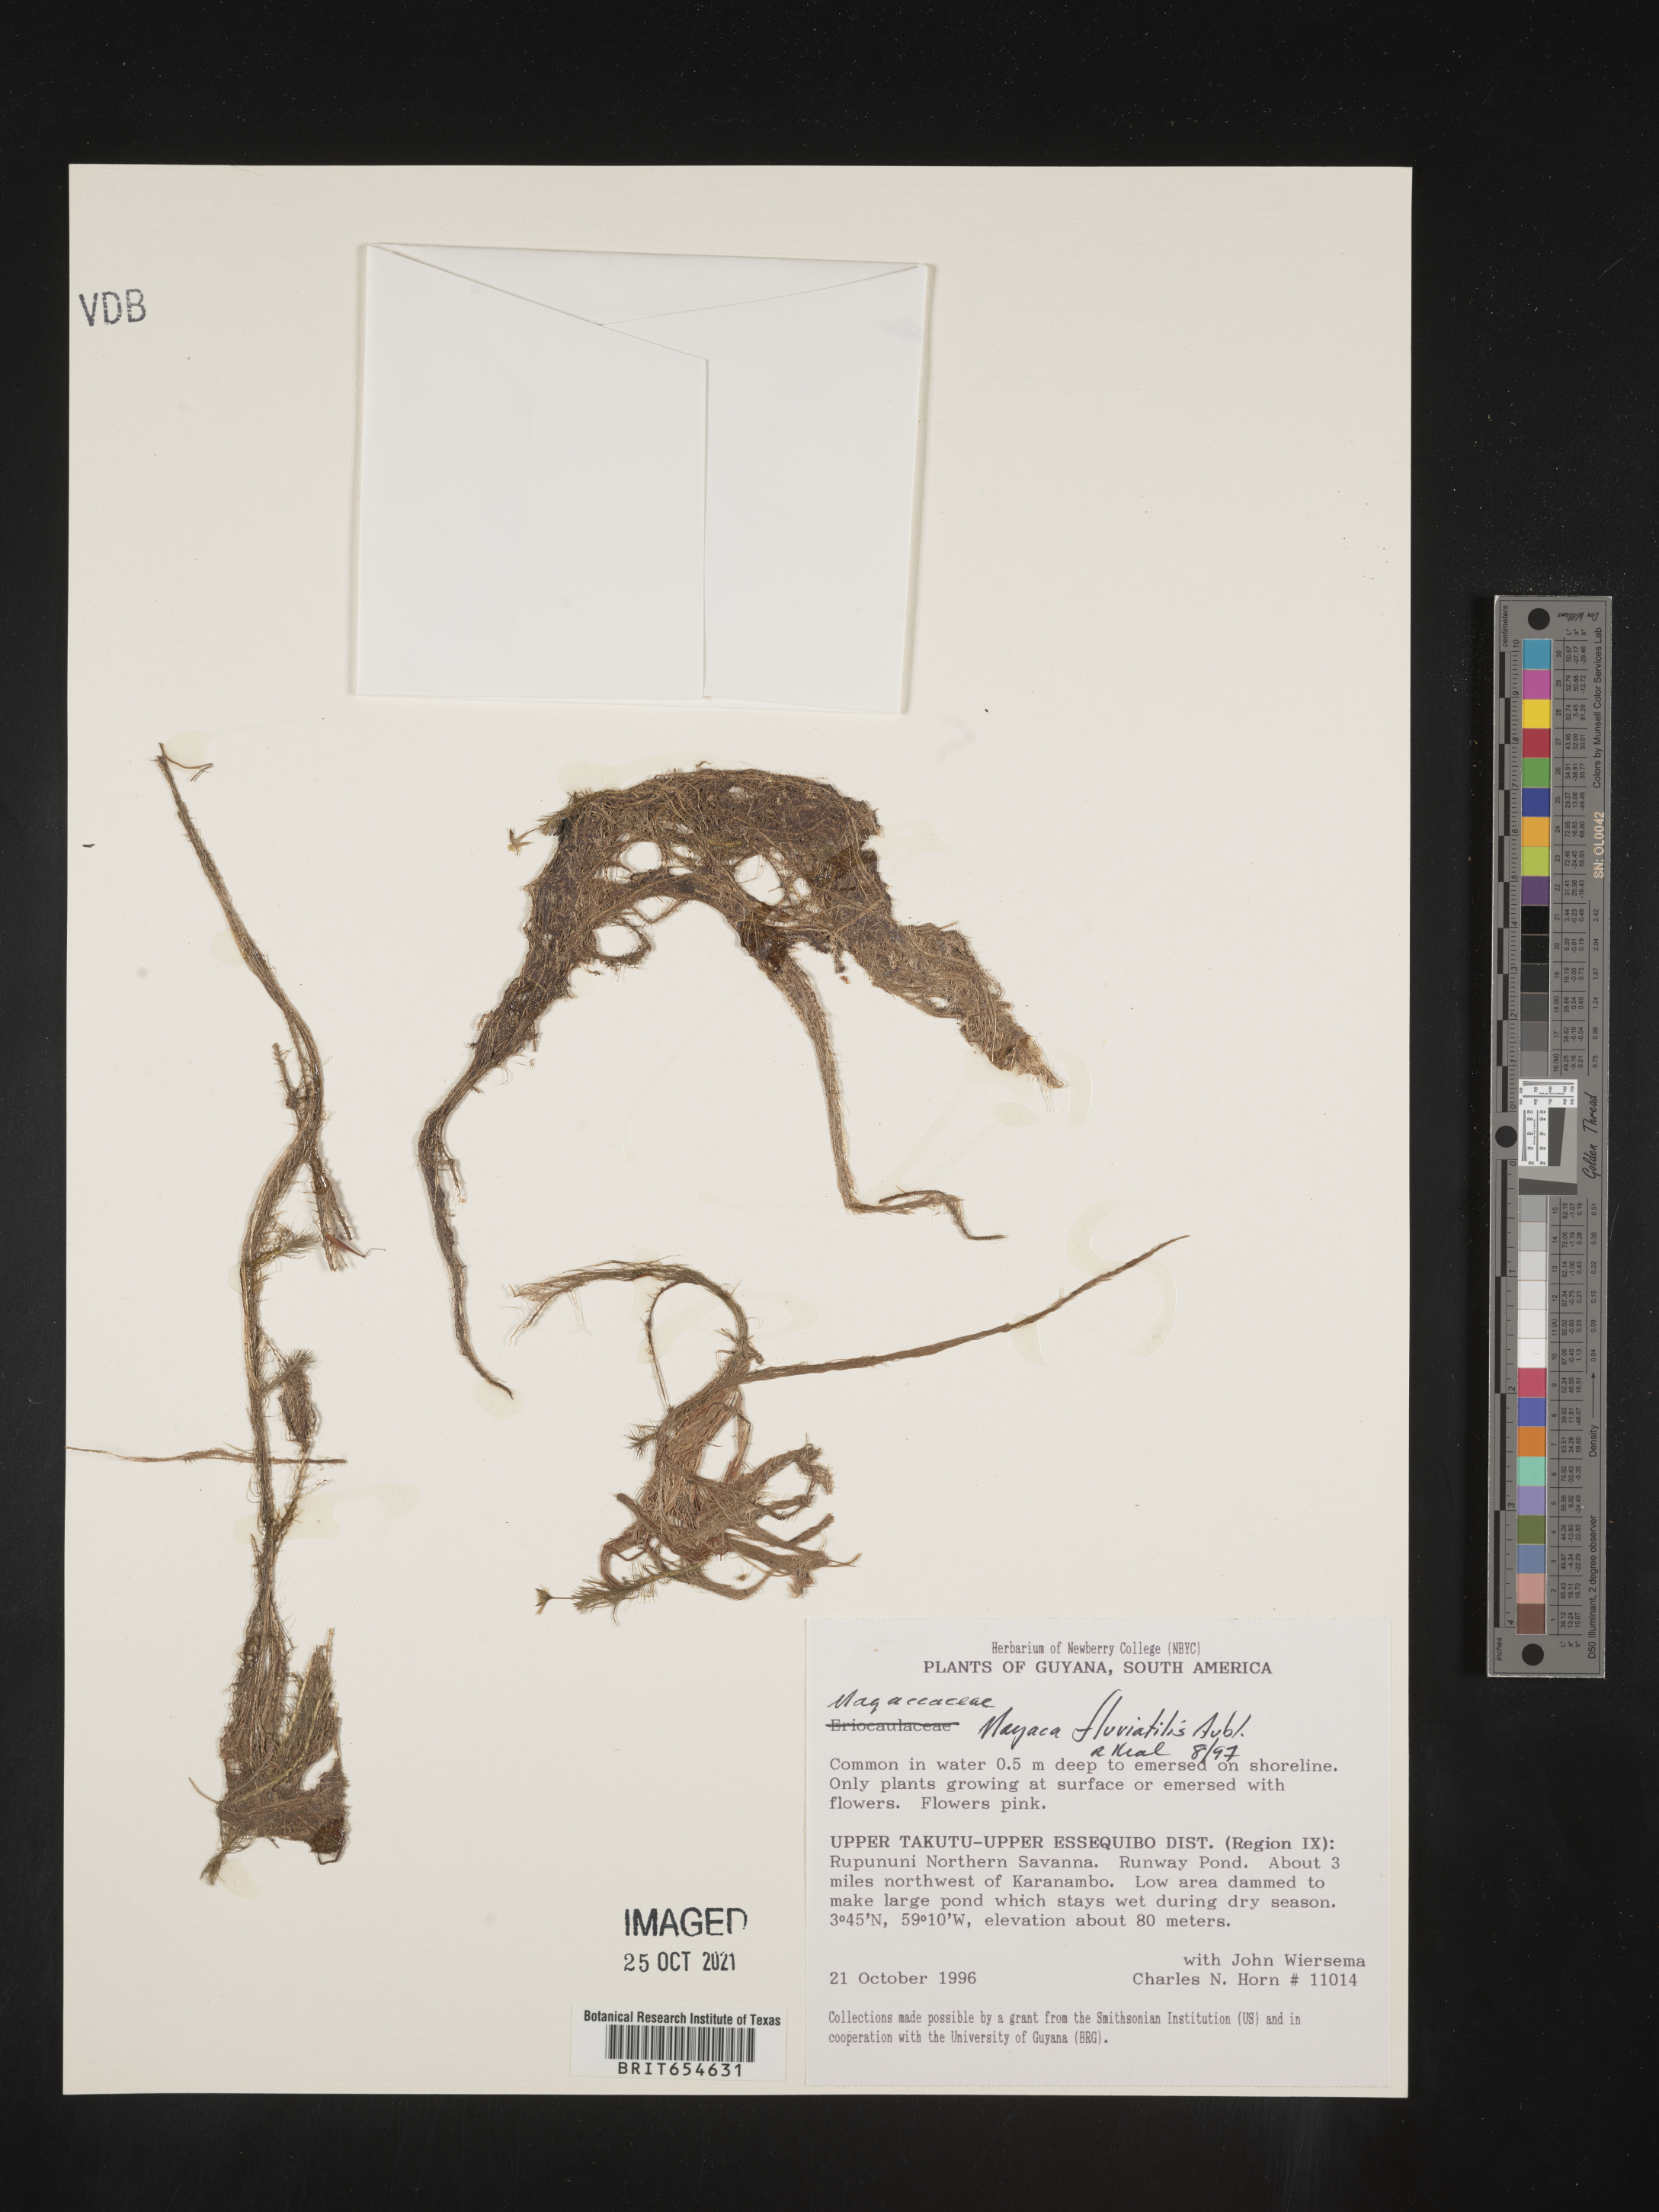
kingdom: Plantae
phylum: Tracheophyta
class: Liliopsida
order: Poales
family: Mayacaceae
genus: Mayaca
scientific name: Mayaca
